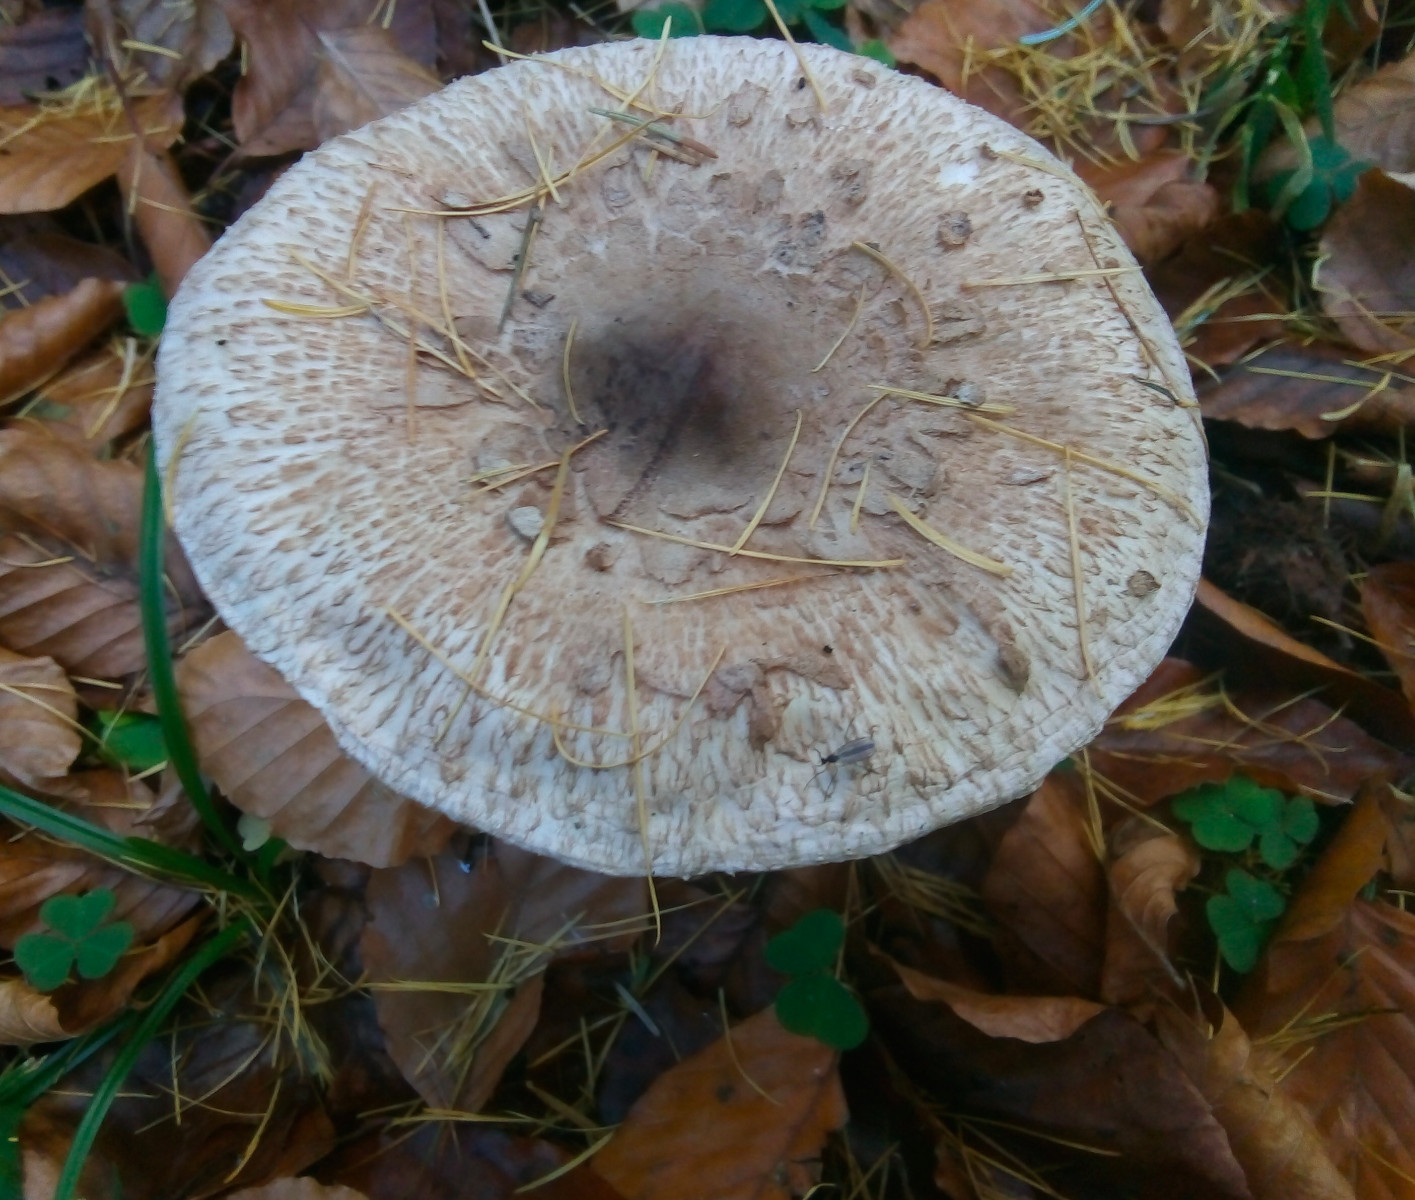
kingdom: Fungi
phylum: Basidiomycota
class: Agaricomycetes
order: Agaricales
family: Agaricaceae
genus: Macrolepiota
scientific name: Macrolepiota mastoidea
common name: puklet kæmpeparasolhat
